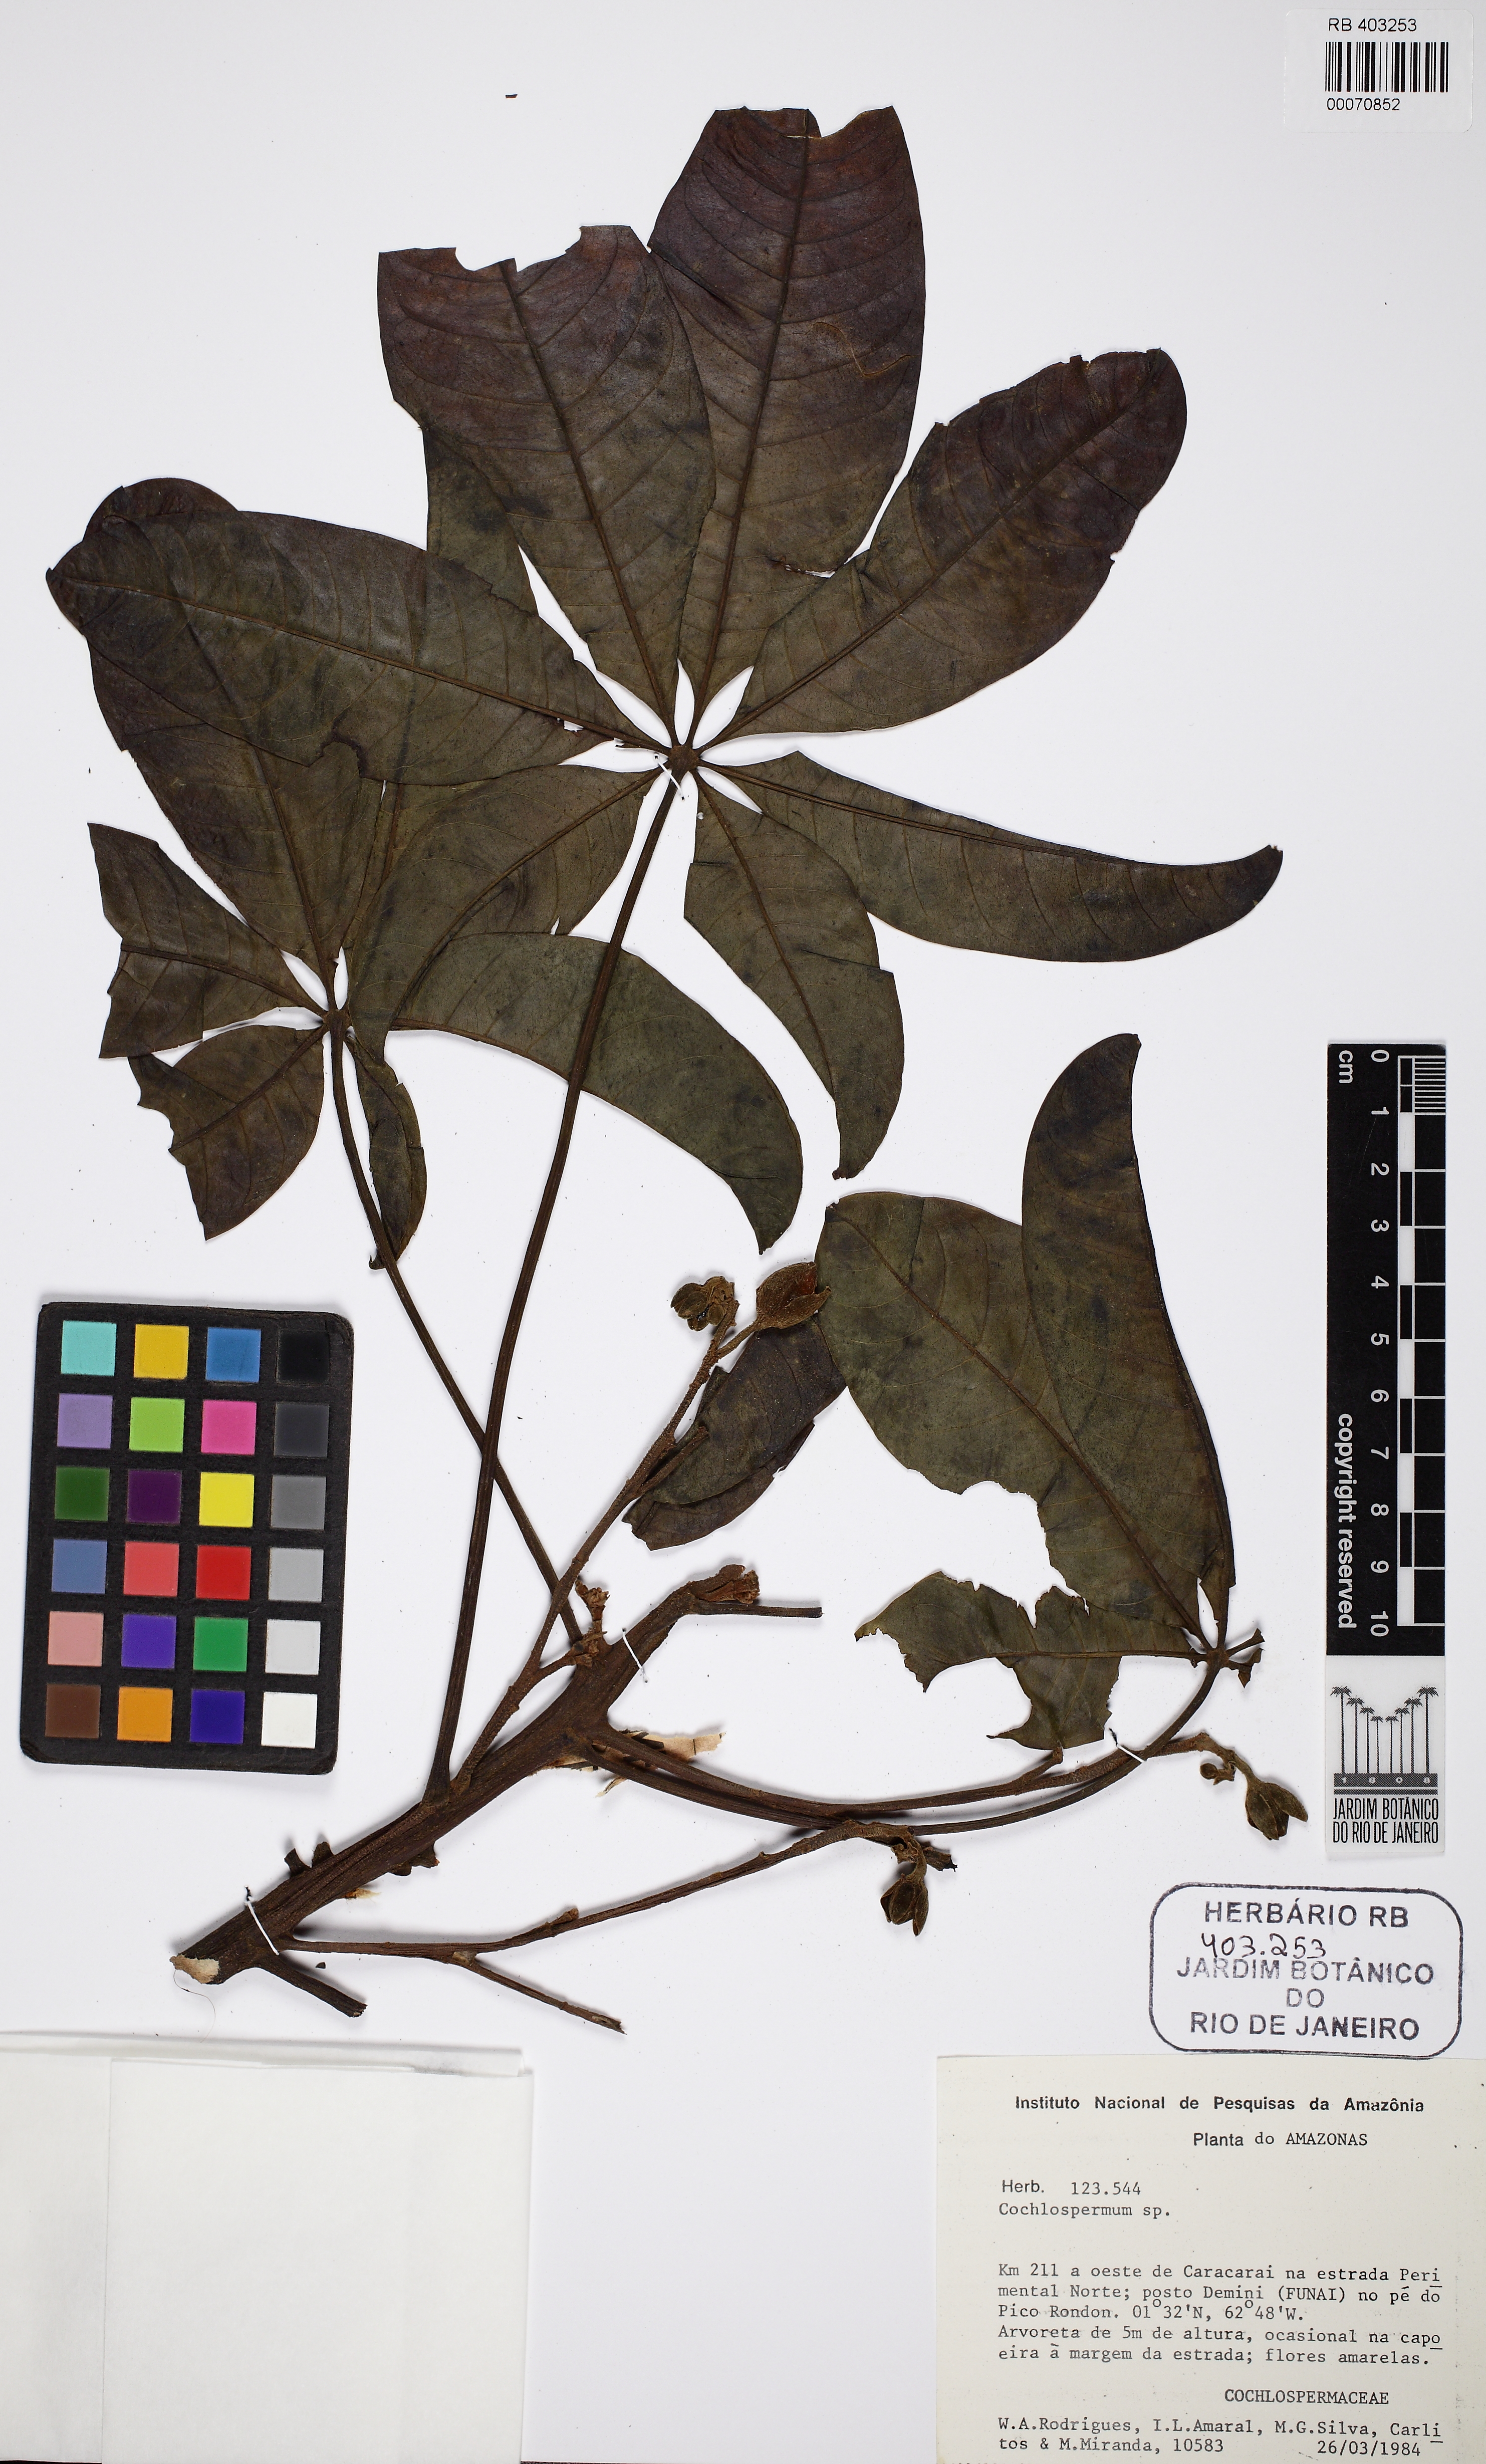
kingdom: Plantae
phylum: Tracheophyta
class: Magnoliopsida
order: Malvales
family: Cochlospermaceae
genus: Cochlospermum
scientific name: Cochlospermum orinocense
